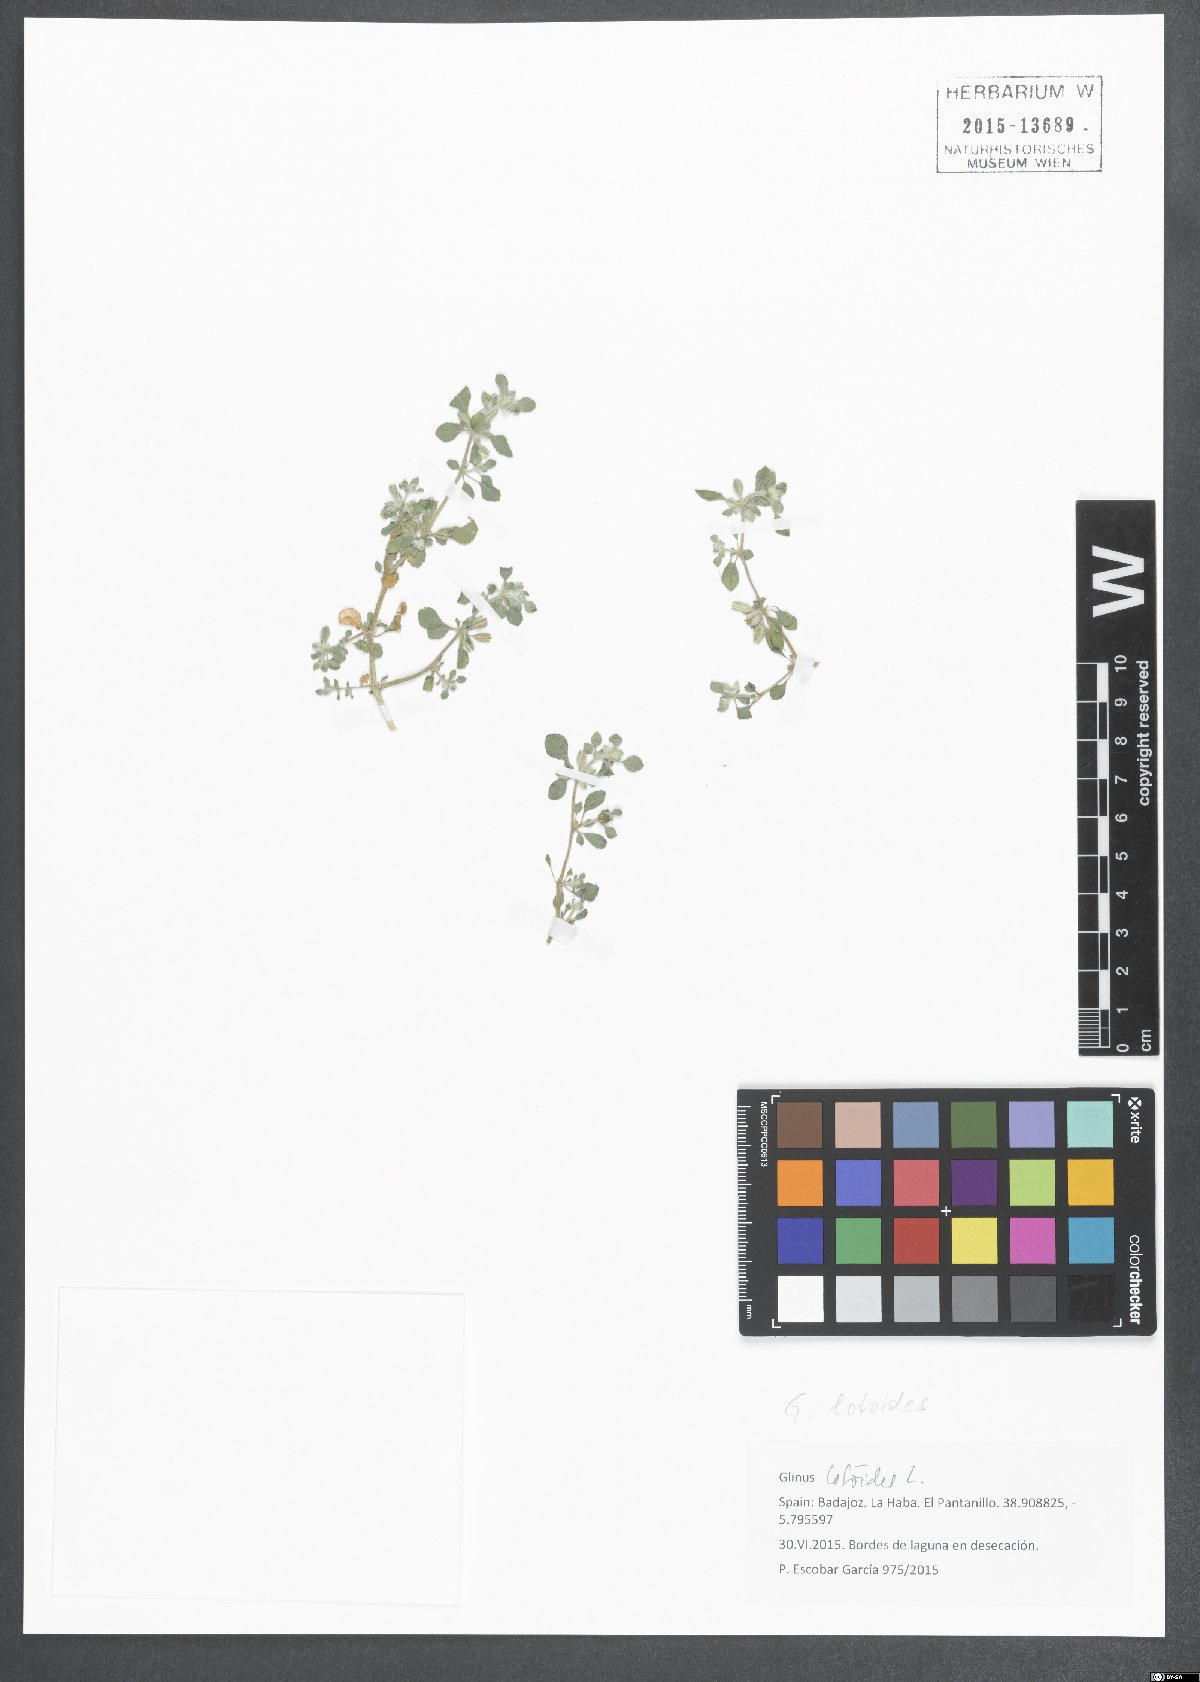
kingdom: Plantae
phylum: Tracheophyta
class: Magnoliopsida
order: Caryophyllales
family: Molluginaceae
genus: Glinus
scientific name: Glinus lotoides
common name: Lotus sweetjuice
